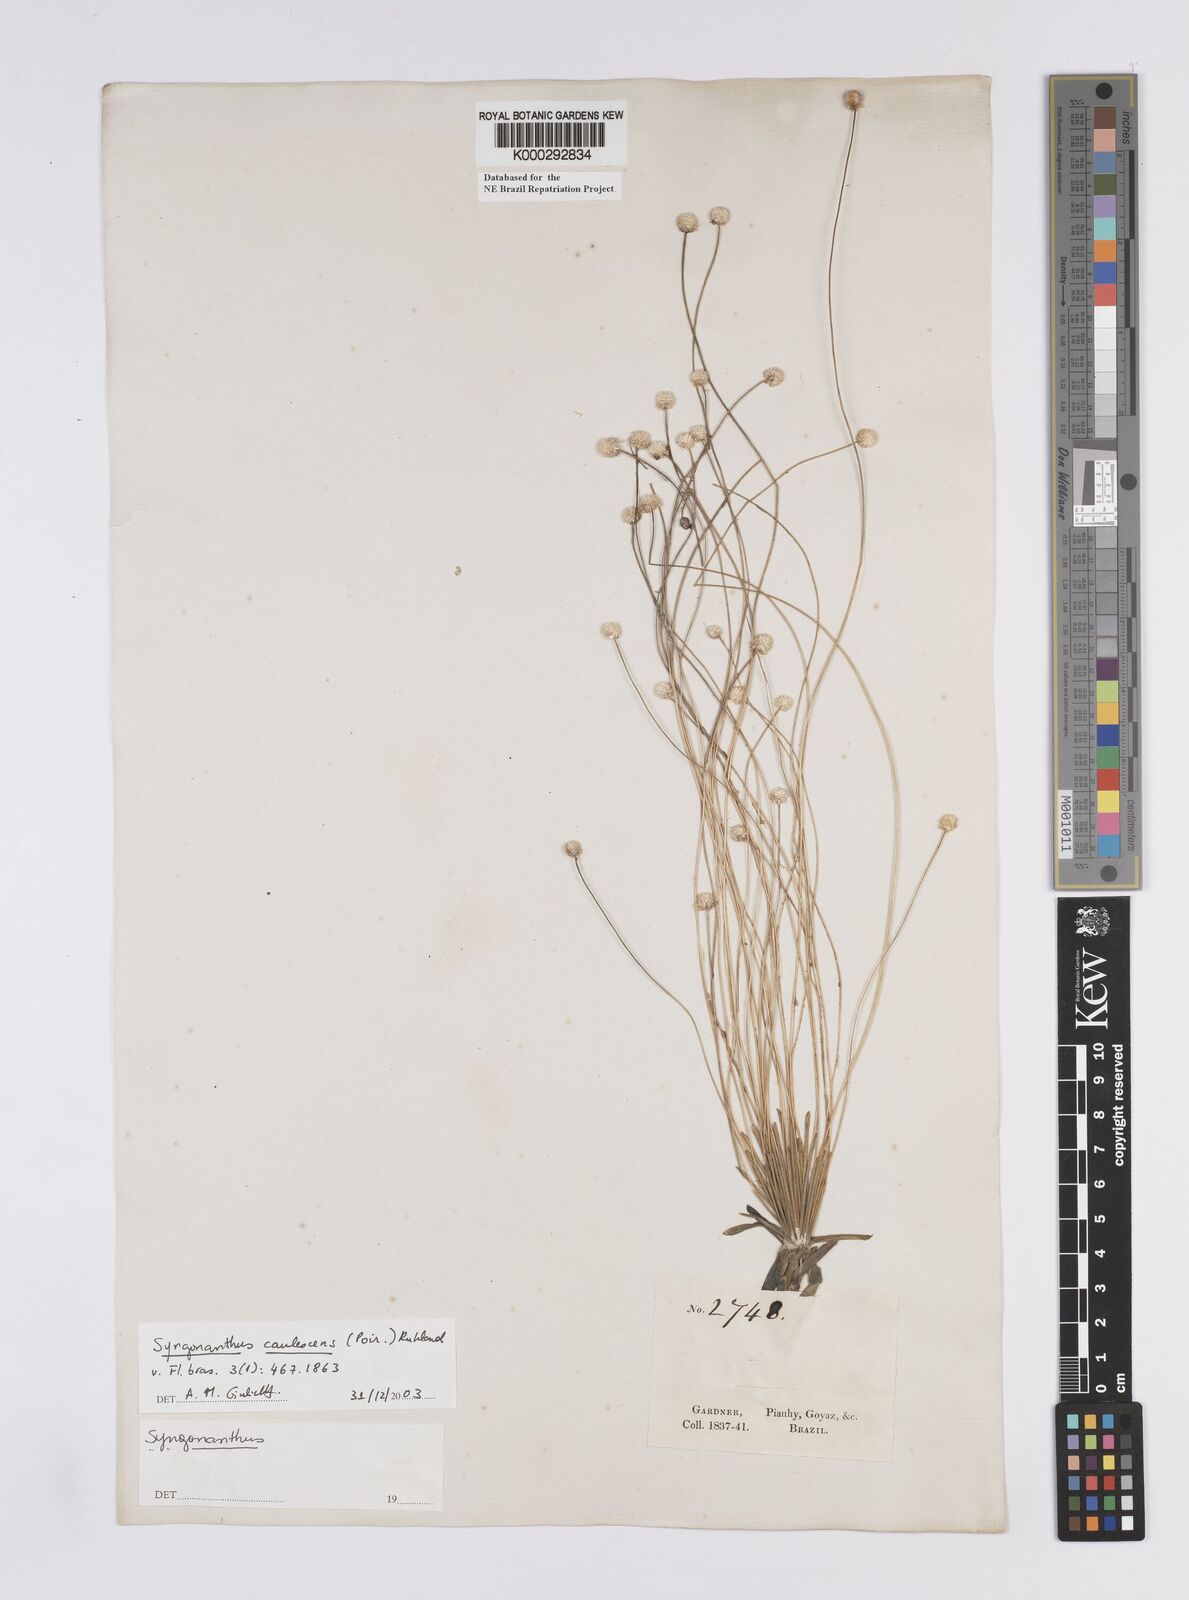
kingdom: Plantae
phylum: Tracheophyta
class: Liliopsida
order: Poales
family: Eriocaulaceae
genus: Syngonanthus
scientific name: Syngonanthus caulescens
